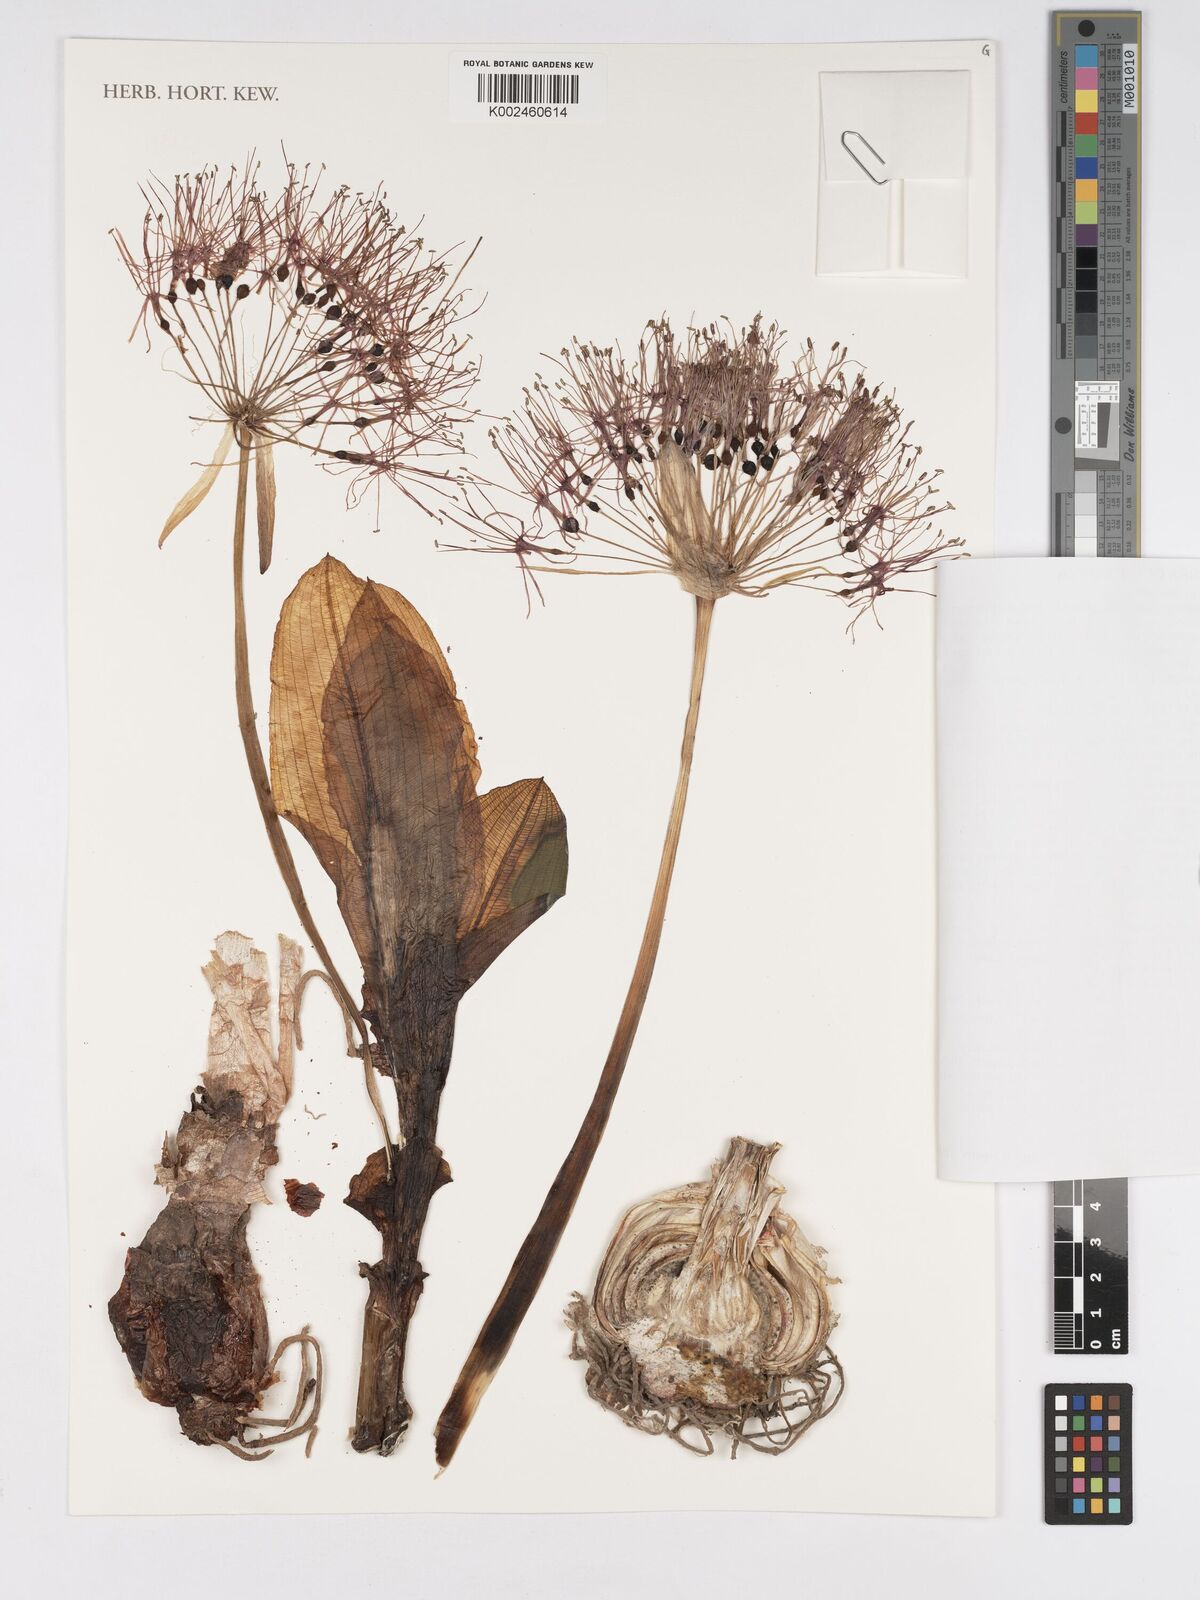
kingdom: Plantae
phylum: Tracheophyta
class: Liliopsida
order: Asparagales
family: Amaryllidaceae
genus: Scadoxus
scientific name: Scadoxus multiflorus
